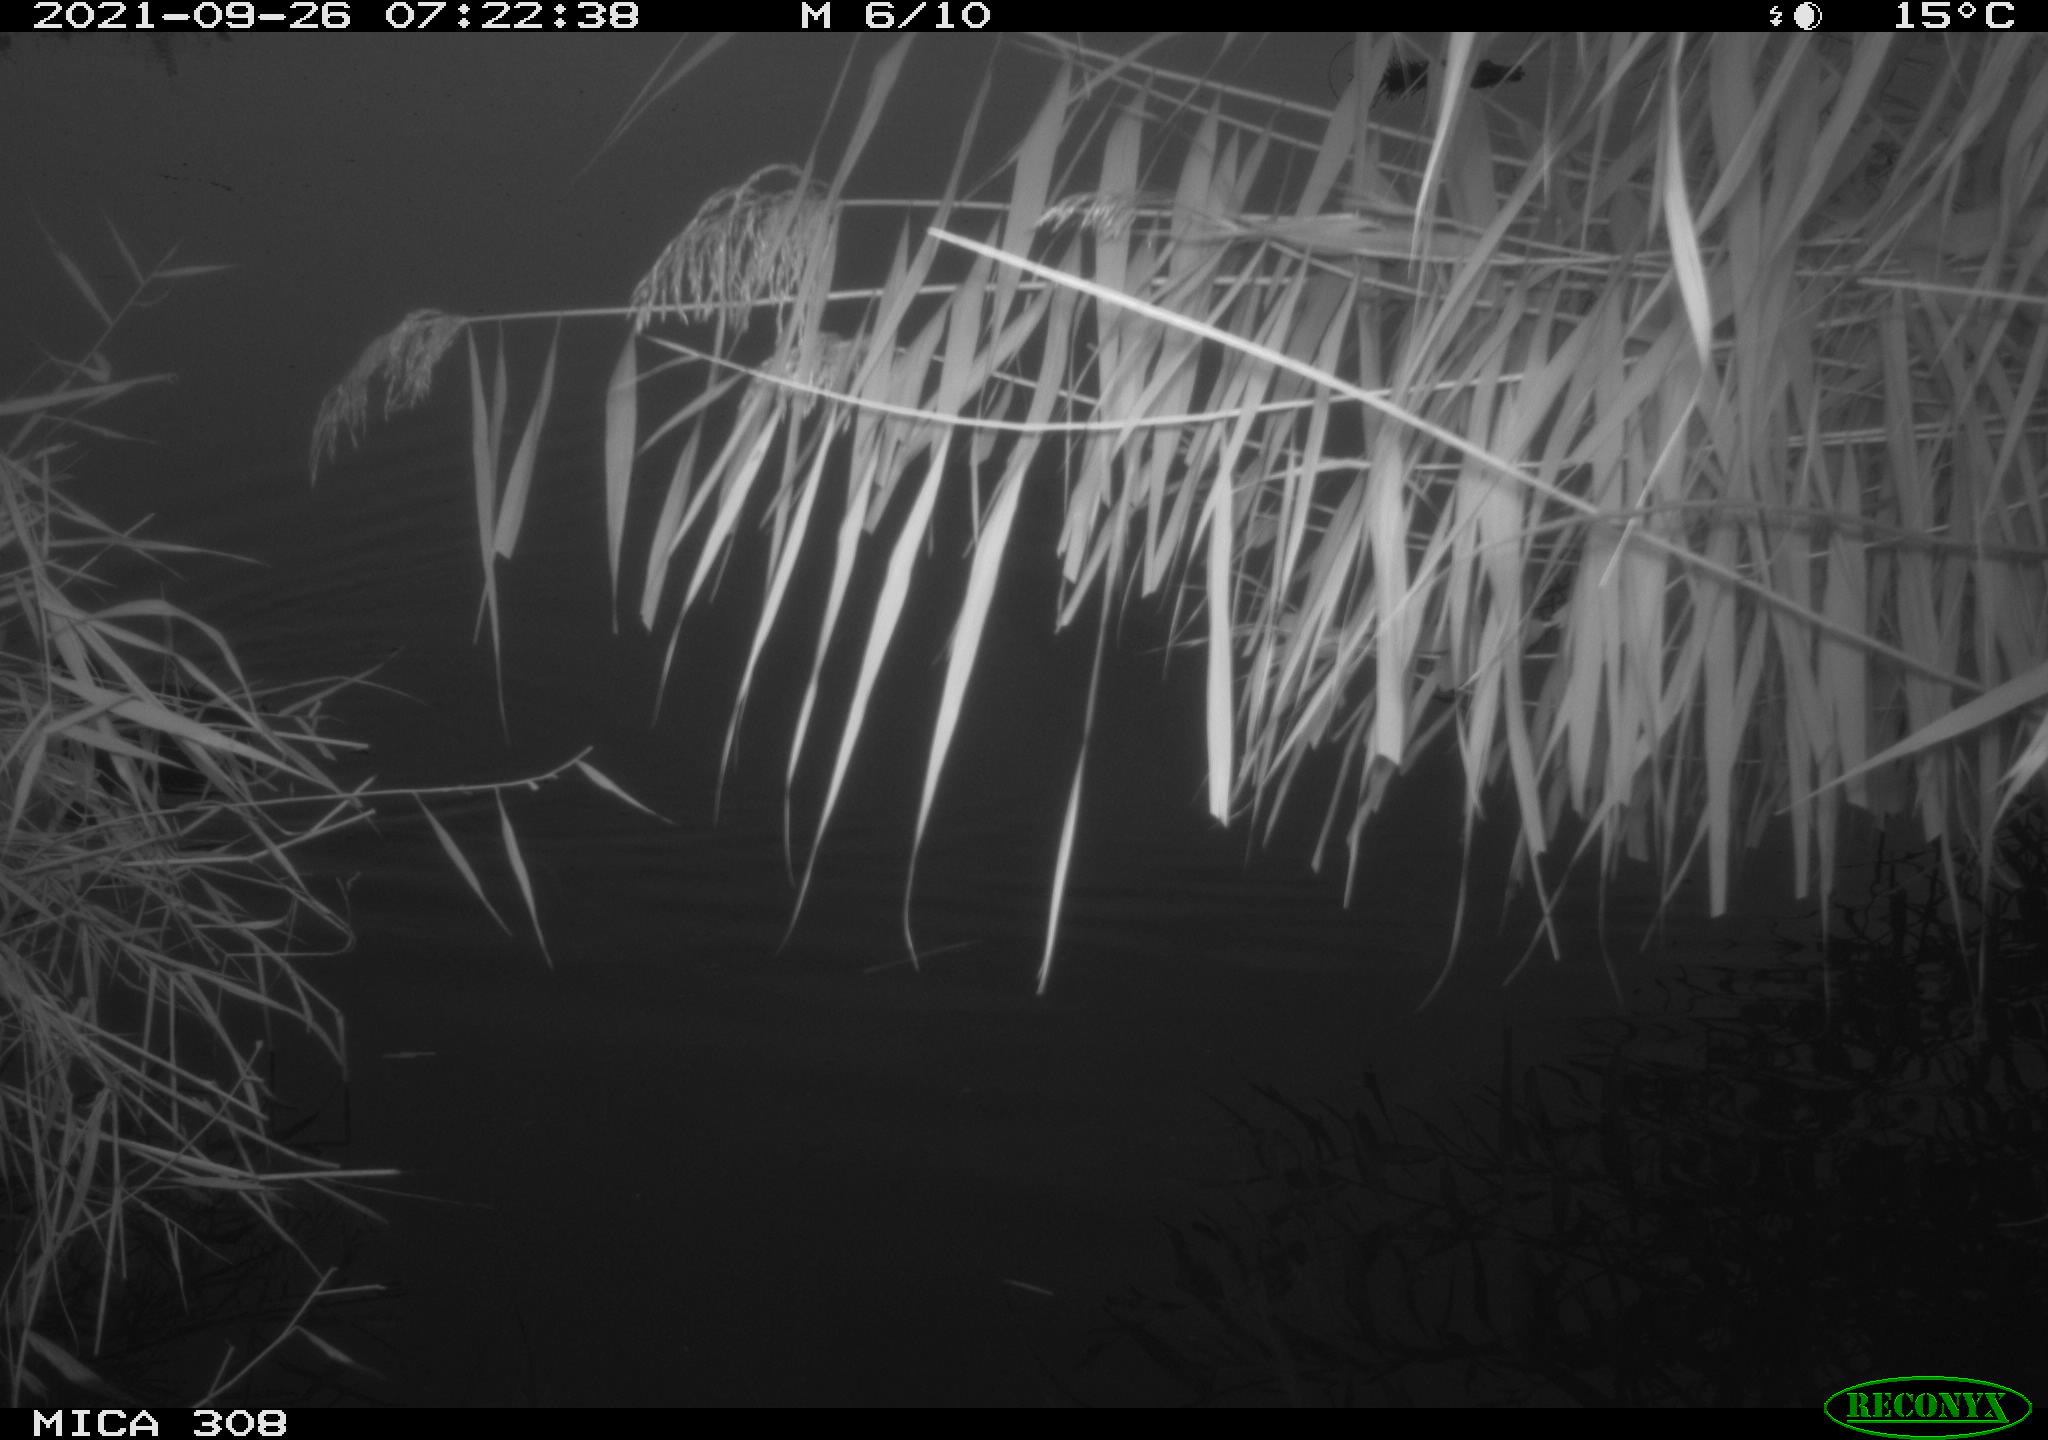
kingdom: Animalia
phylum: Chordata
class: Aves
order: Gruiformes
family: Rallidae
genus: Gallinula
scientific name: Gallinula chloropus
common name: Common moorhen
